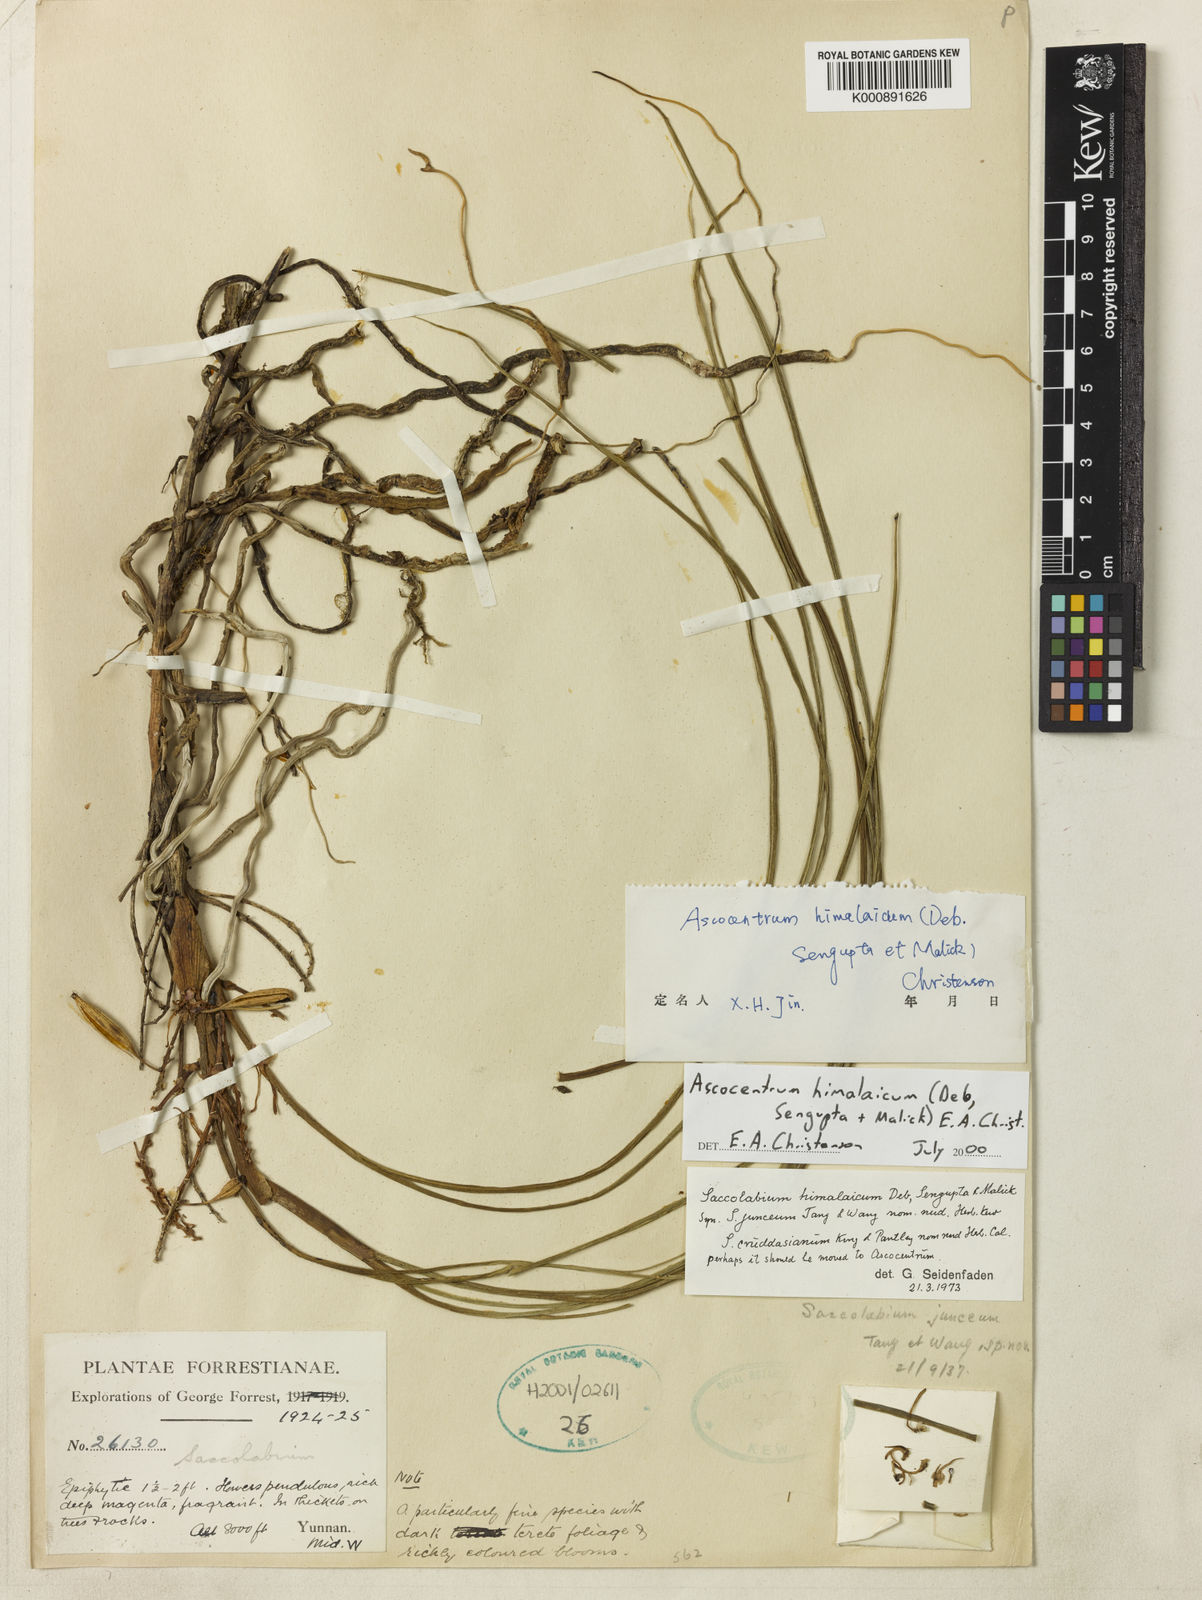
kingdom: Plantae
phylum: Tracheophyta
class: Liliopsida
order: Asparagales
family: Orchidaceae
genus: Holcoglossum
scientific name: Holcoglossum himalaicum
